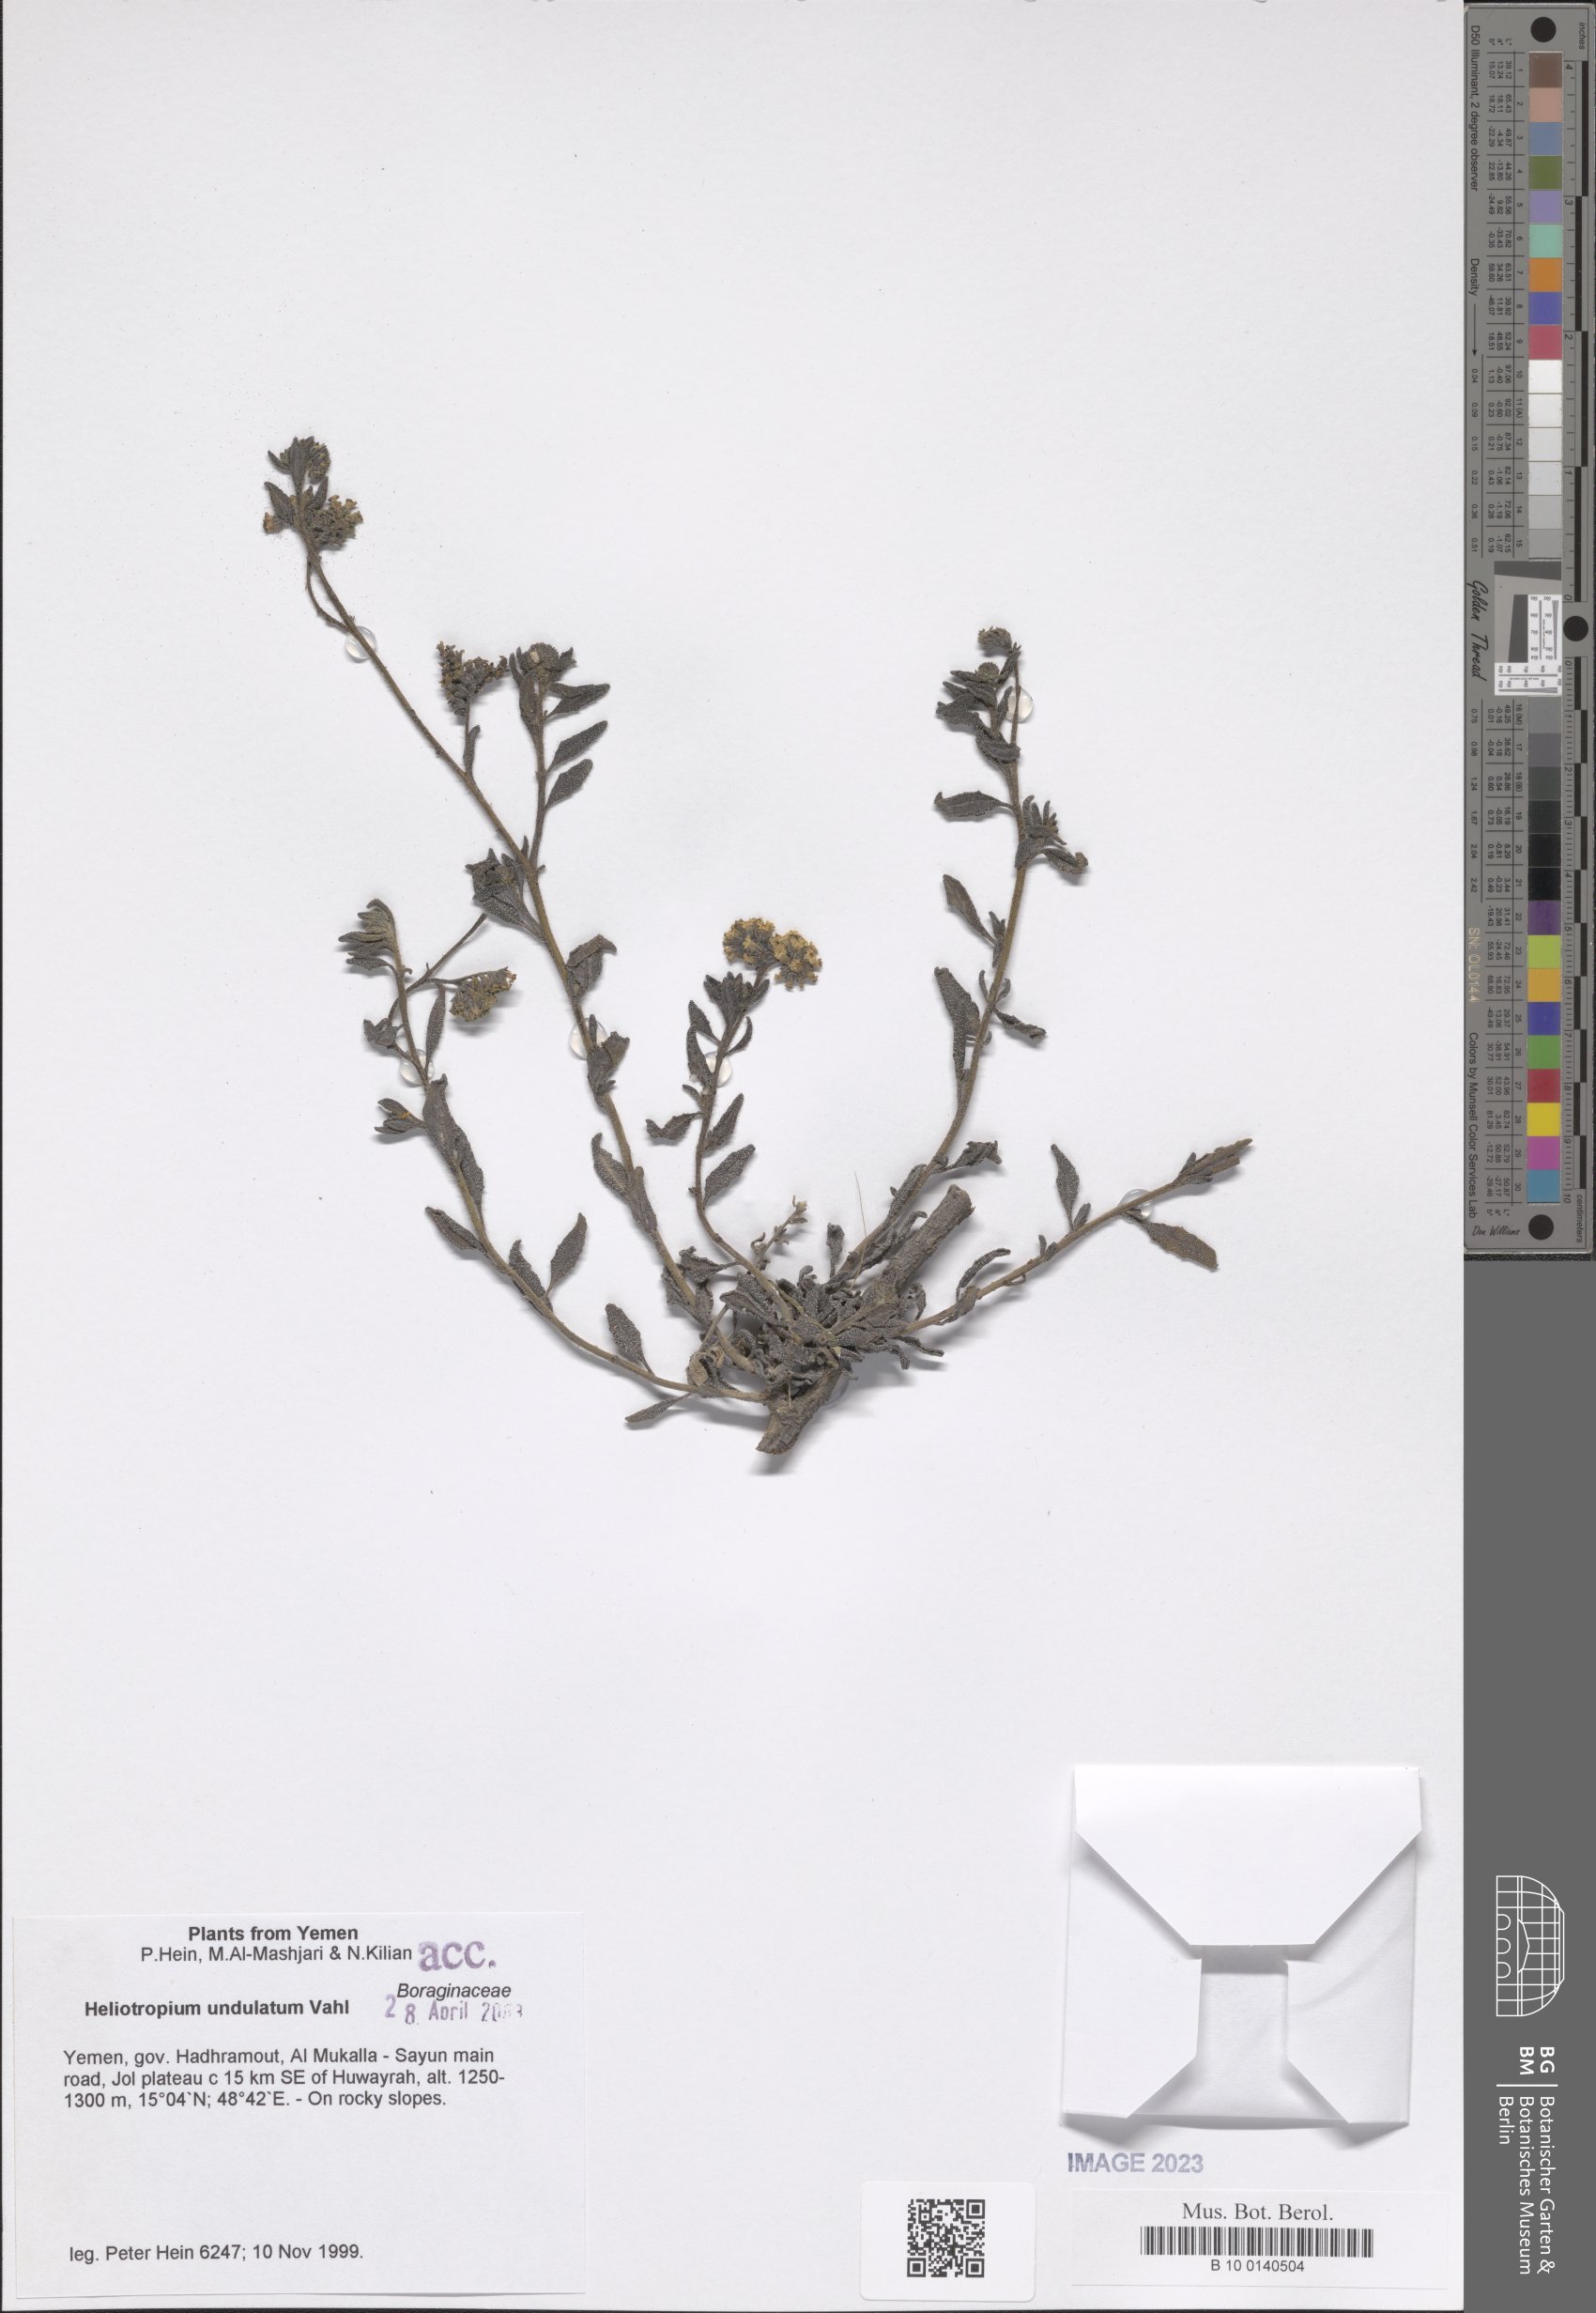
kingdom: Plantae
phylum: Tracheophyta
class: Magnoliopsida
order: Boraginales
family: Heliotropiaceae
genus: Heliotropium
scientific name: Heliotropium bacciferum
